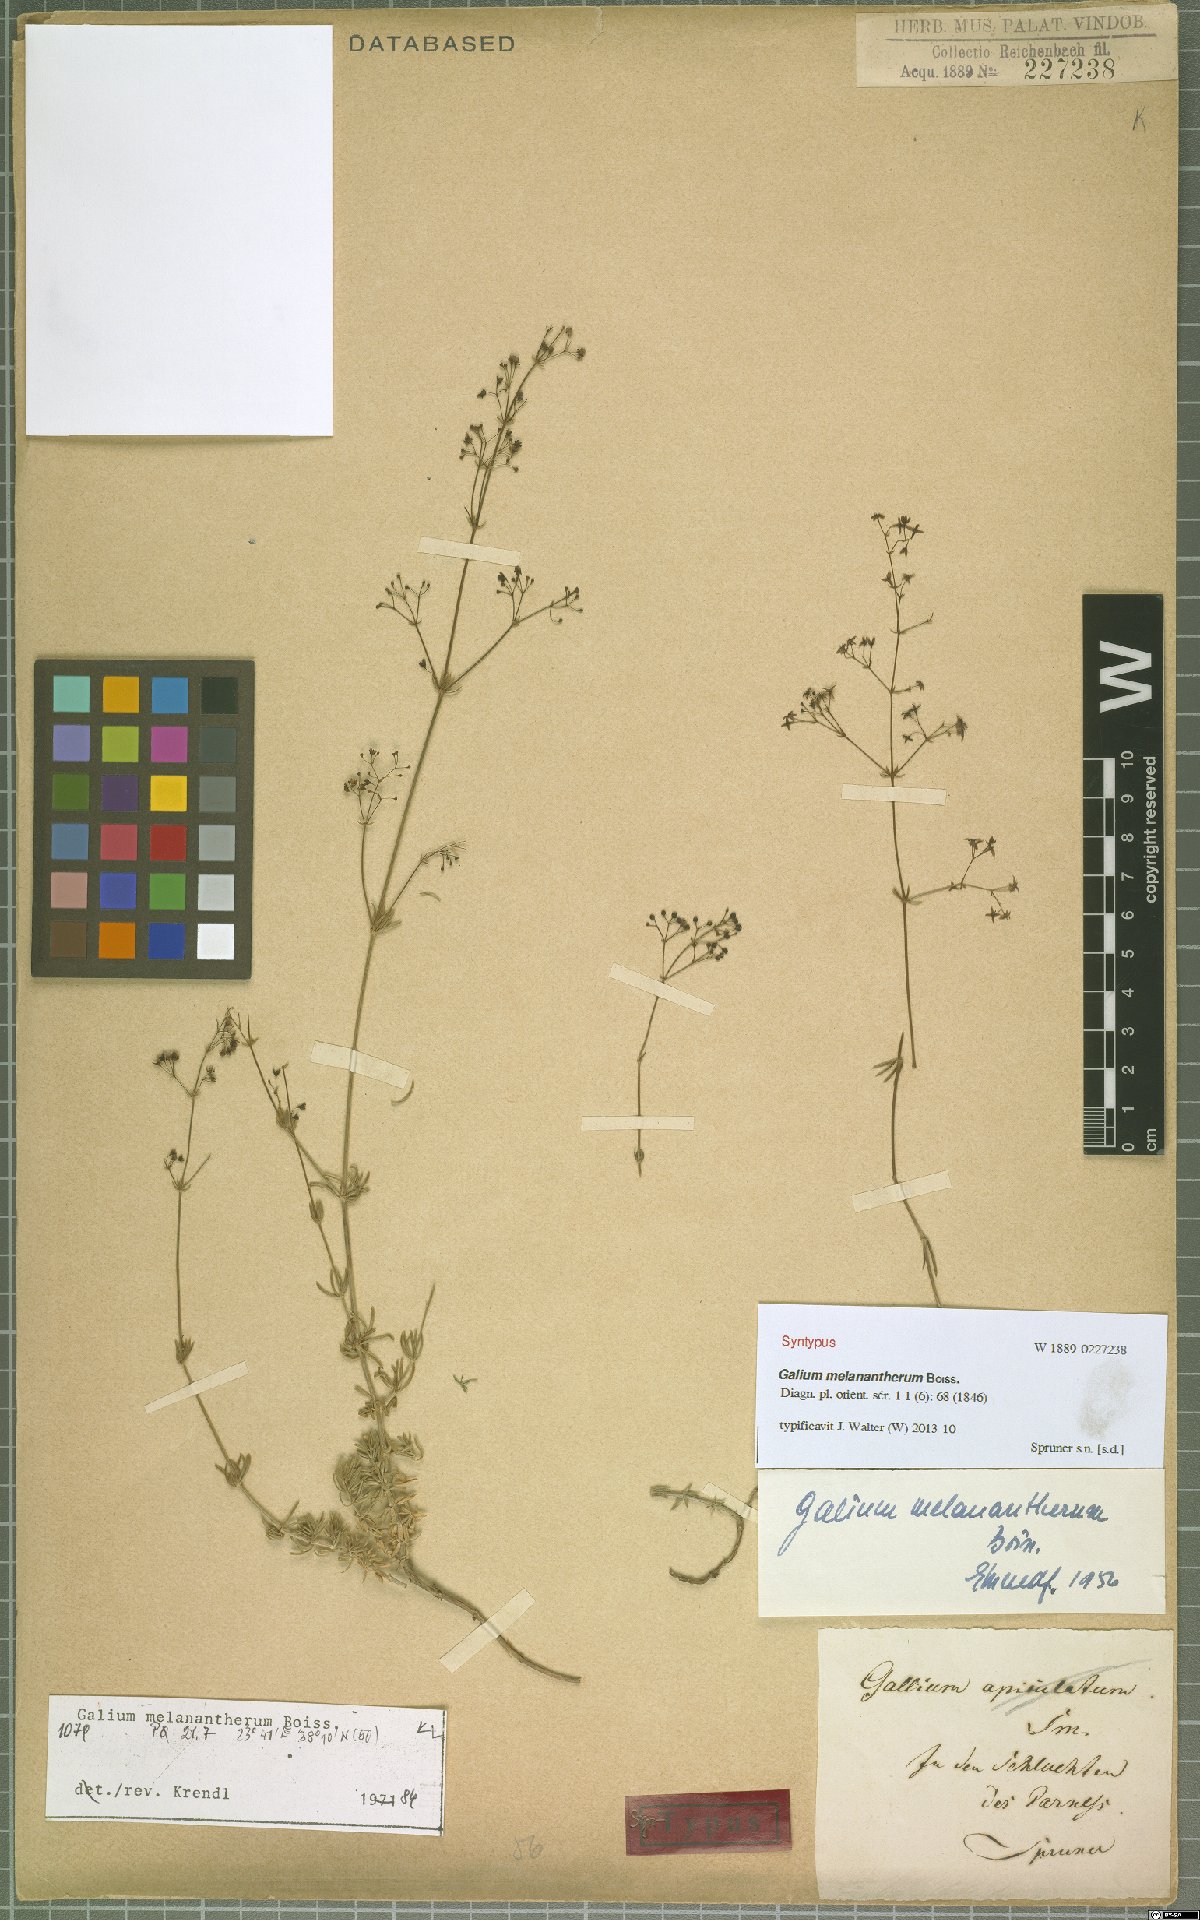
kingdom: Plantae
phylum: Tracheophyta
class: Magnoliopsida
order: Gentianales
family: Rubiaceae
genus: Galium
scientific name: Galium melanantherum
